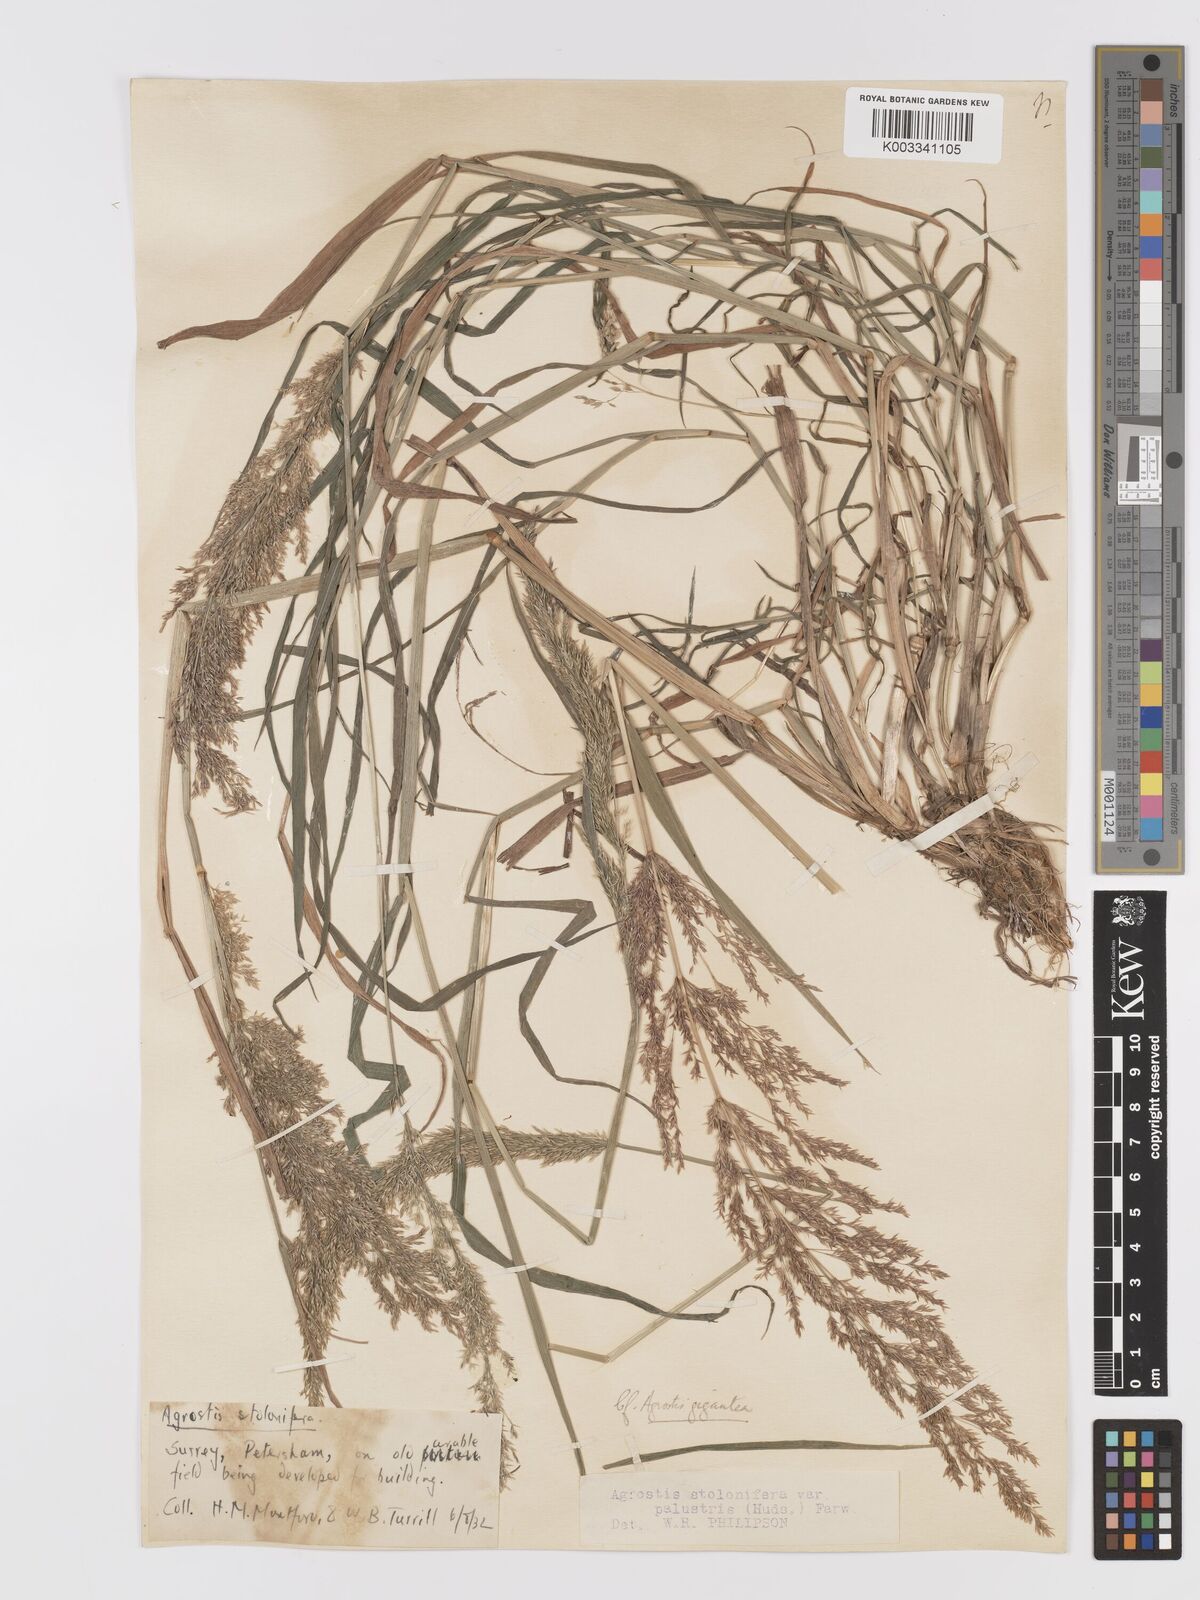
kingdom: Plantae
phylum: Tracheophyta
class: Liliopsida
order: Poales
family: Poaceae
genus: Agrostis
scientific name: Agrostis gigantea
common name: Black bent
